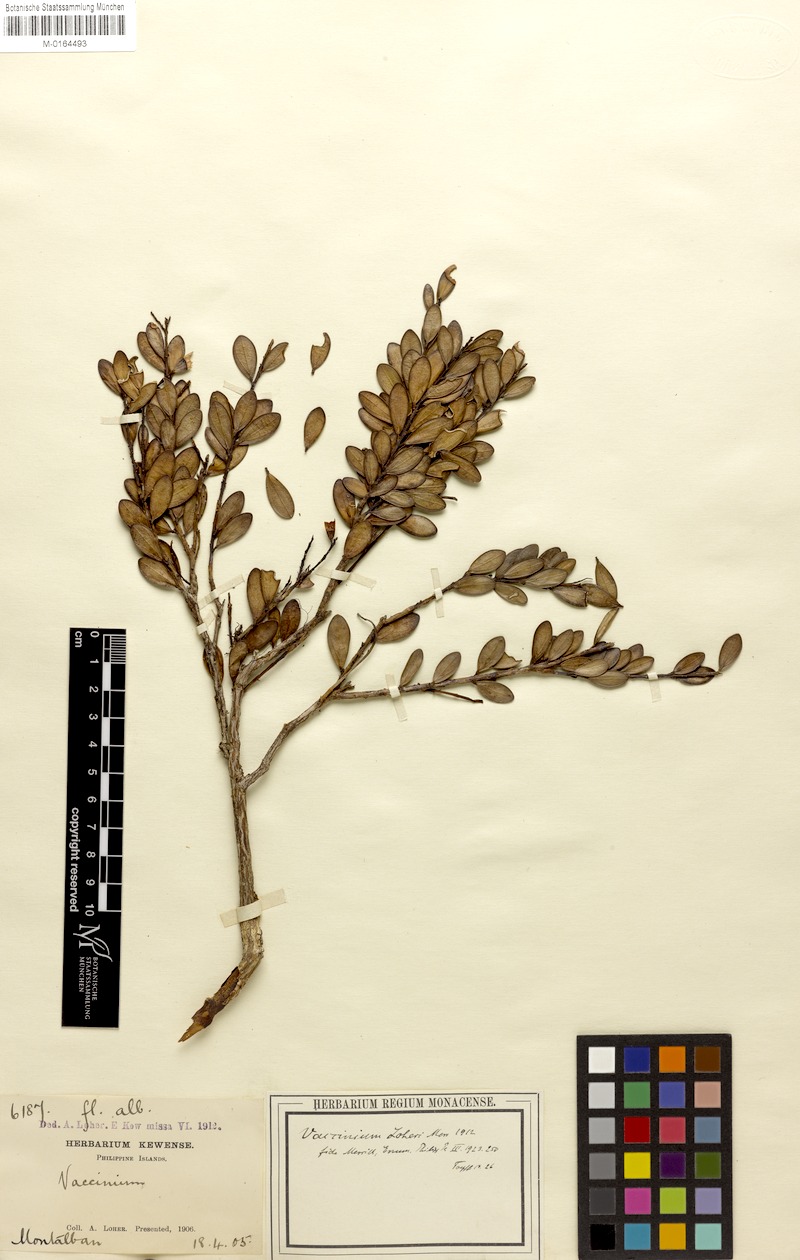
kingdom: Plantae
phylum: Tracheophyta
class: Magnoliopsida
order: Ericales
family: Ericaceae
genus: Costera
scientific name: Costera loheri
